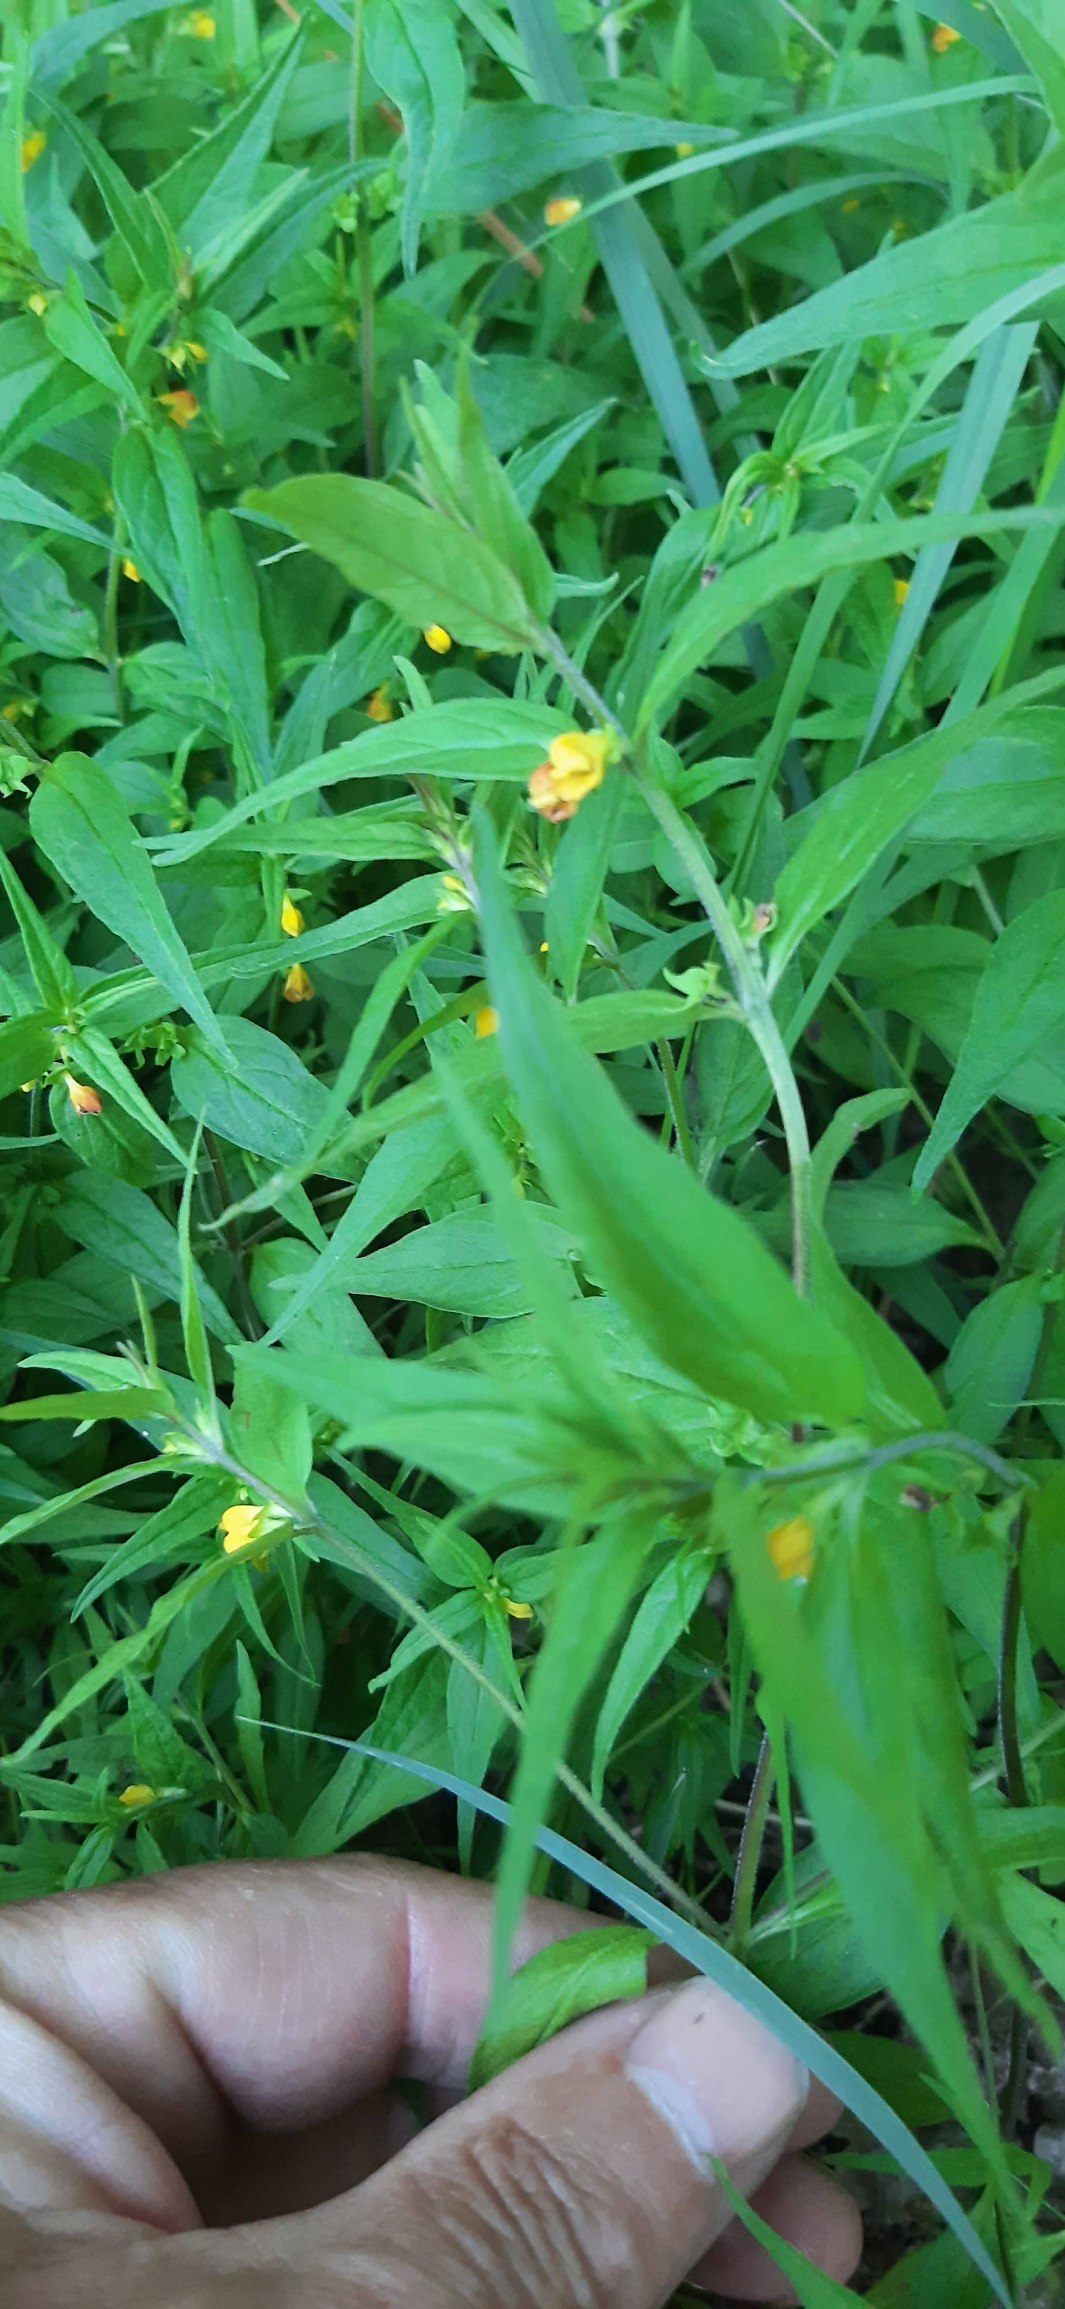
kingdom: Plantae
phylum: Tracheophyta
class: Magnoliopsida
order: Lamiales
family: Orobanchaceae
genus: Melampyrum
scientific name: Melampyrum sylvaticum
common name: Skov-kohvede
